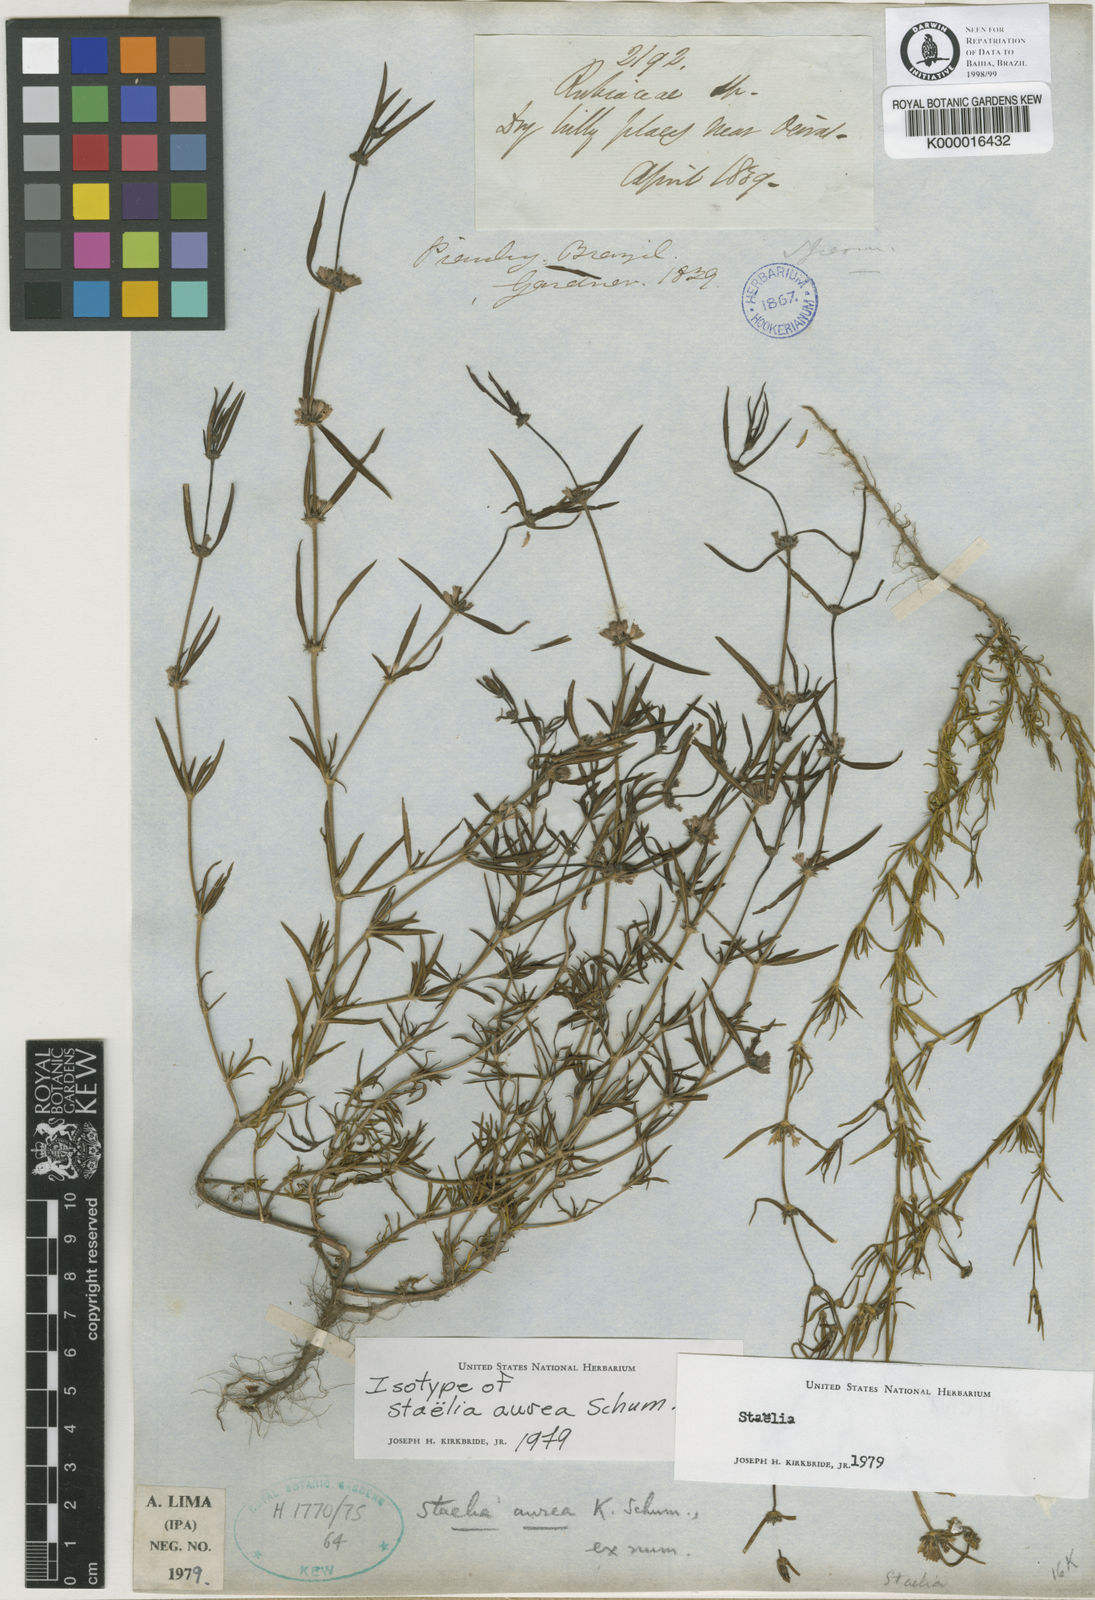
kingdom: Plantae
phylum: Tracheophyta
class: Magnoliopsida
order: Gentianales
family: Rubiaceae
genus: Staelia
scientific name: Staelia aurea
